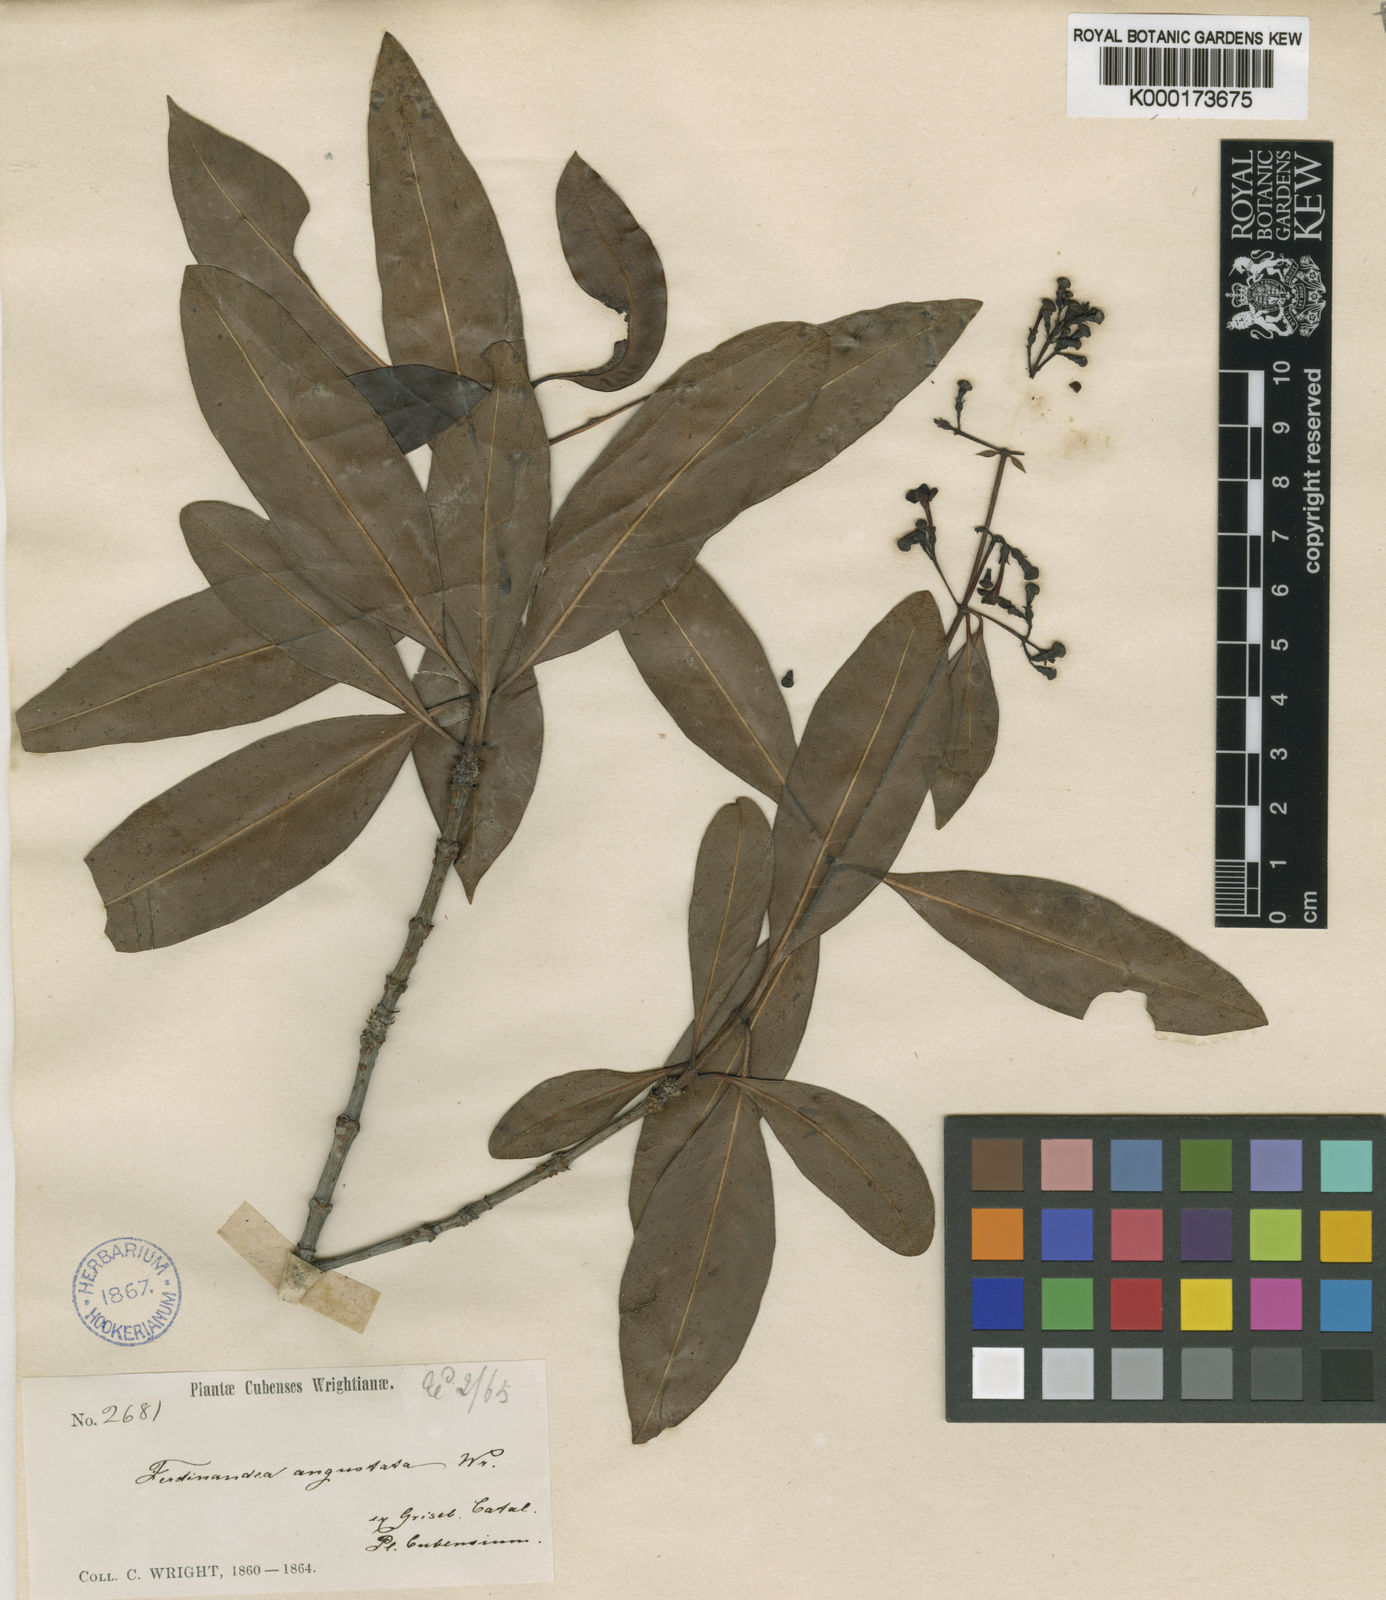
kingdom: Plantae
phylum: Tracheophyta
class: Magnoliopsida
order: Gentianales
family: Rubiaceae
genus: Suberanthus
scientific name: Suberanthus angustatus
